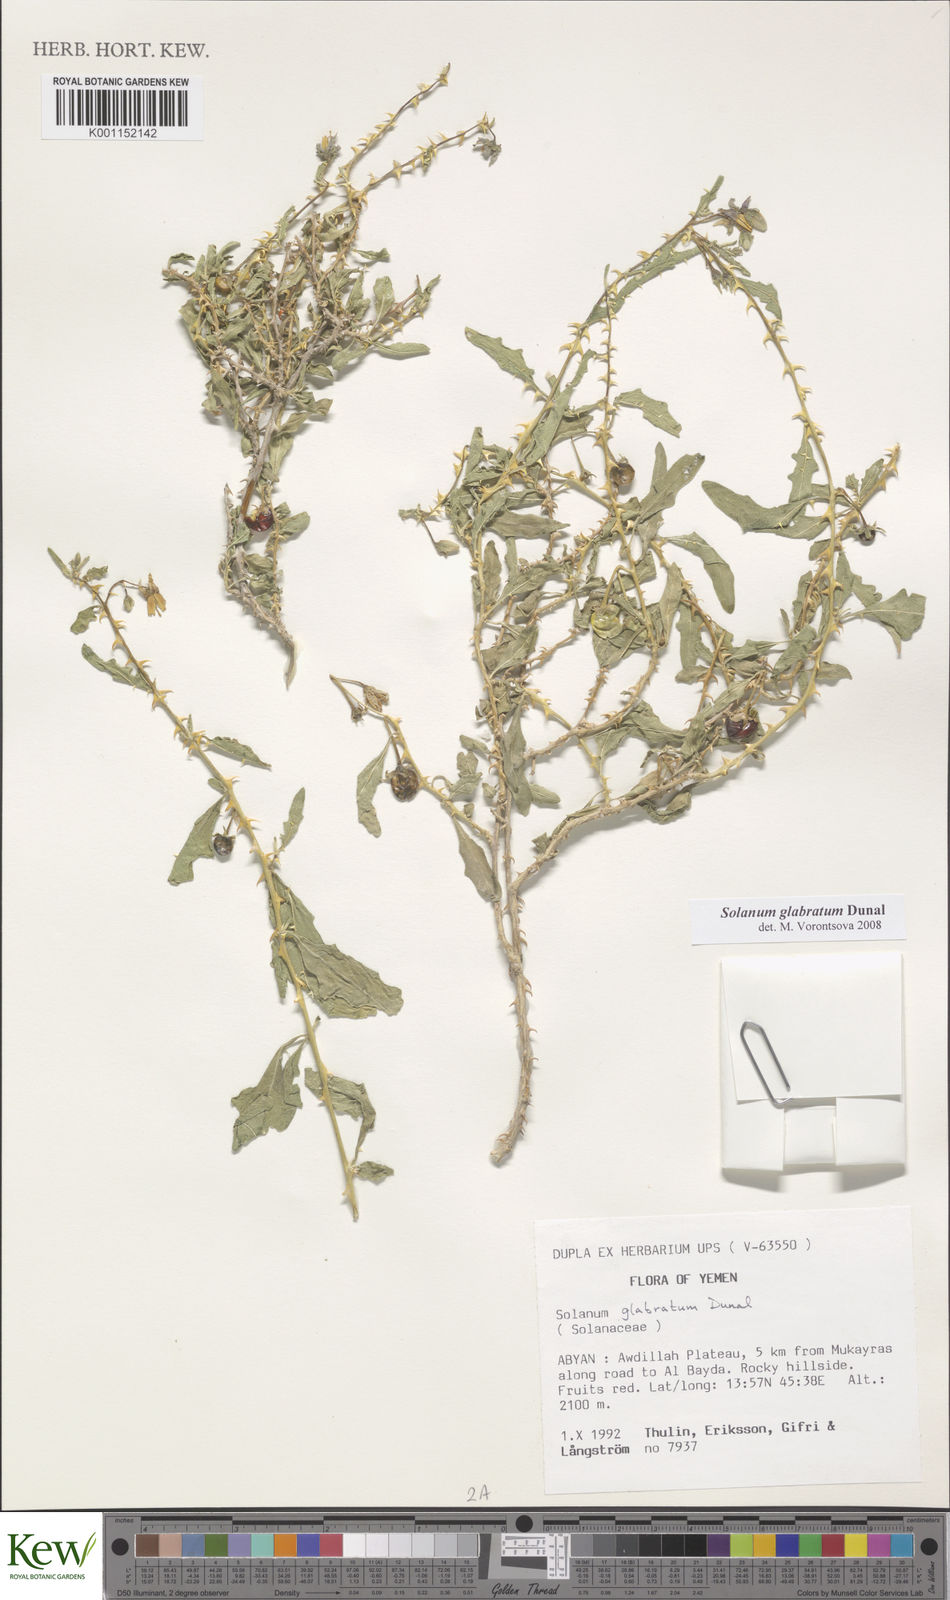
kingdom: Plantae
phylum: Tracheophyta
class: Magnoliopsida
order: Solanales
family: Solanaceae
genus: Solanum
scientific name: Solanum glabratum
